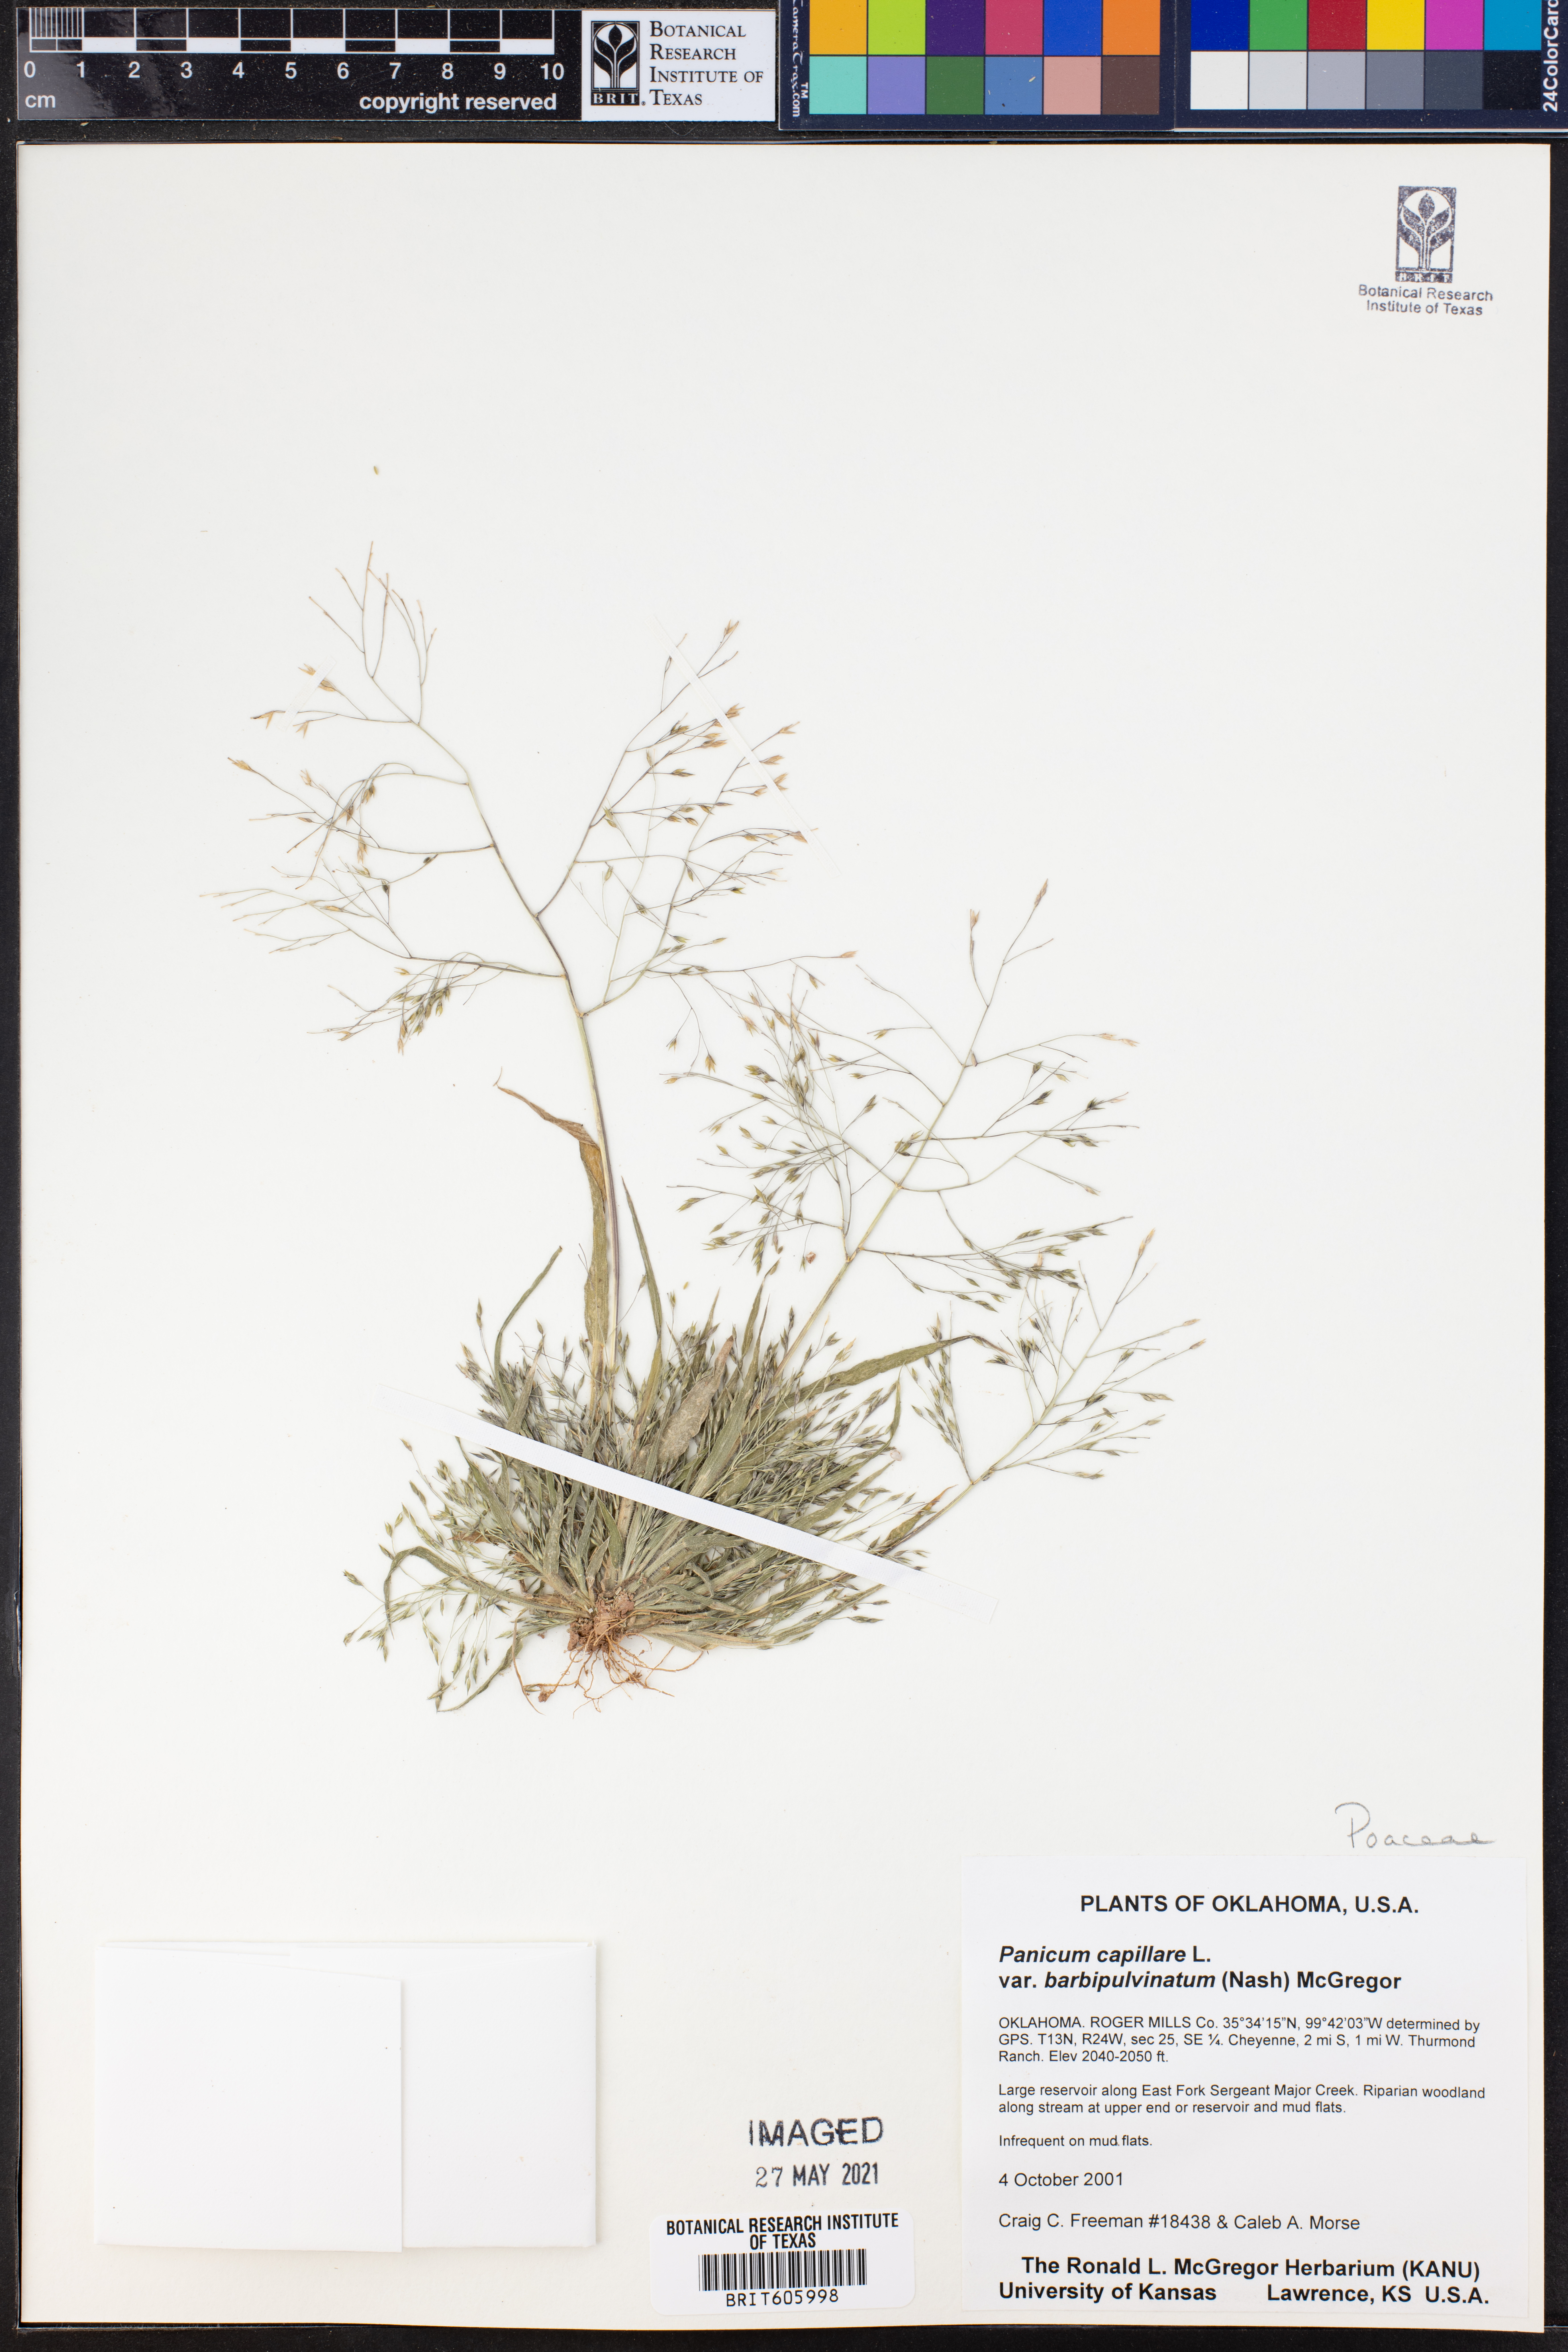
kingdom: Plantae
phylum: Tracheophyta
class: Liliopsida
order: Poales
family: Poaceae
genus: Panicum
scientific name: Panicum capillare
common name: Witch-grass
